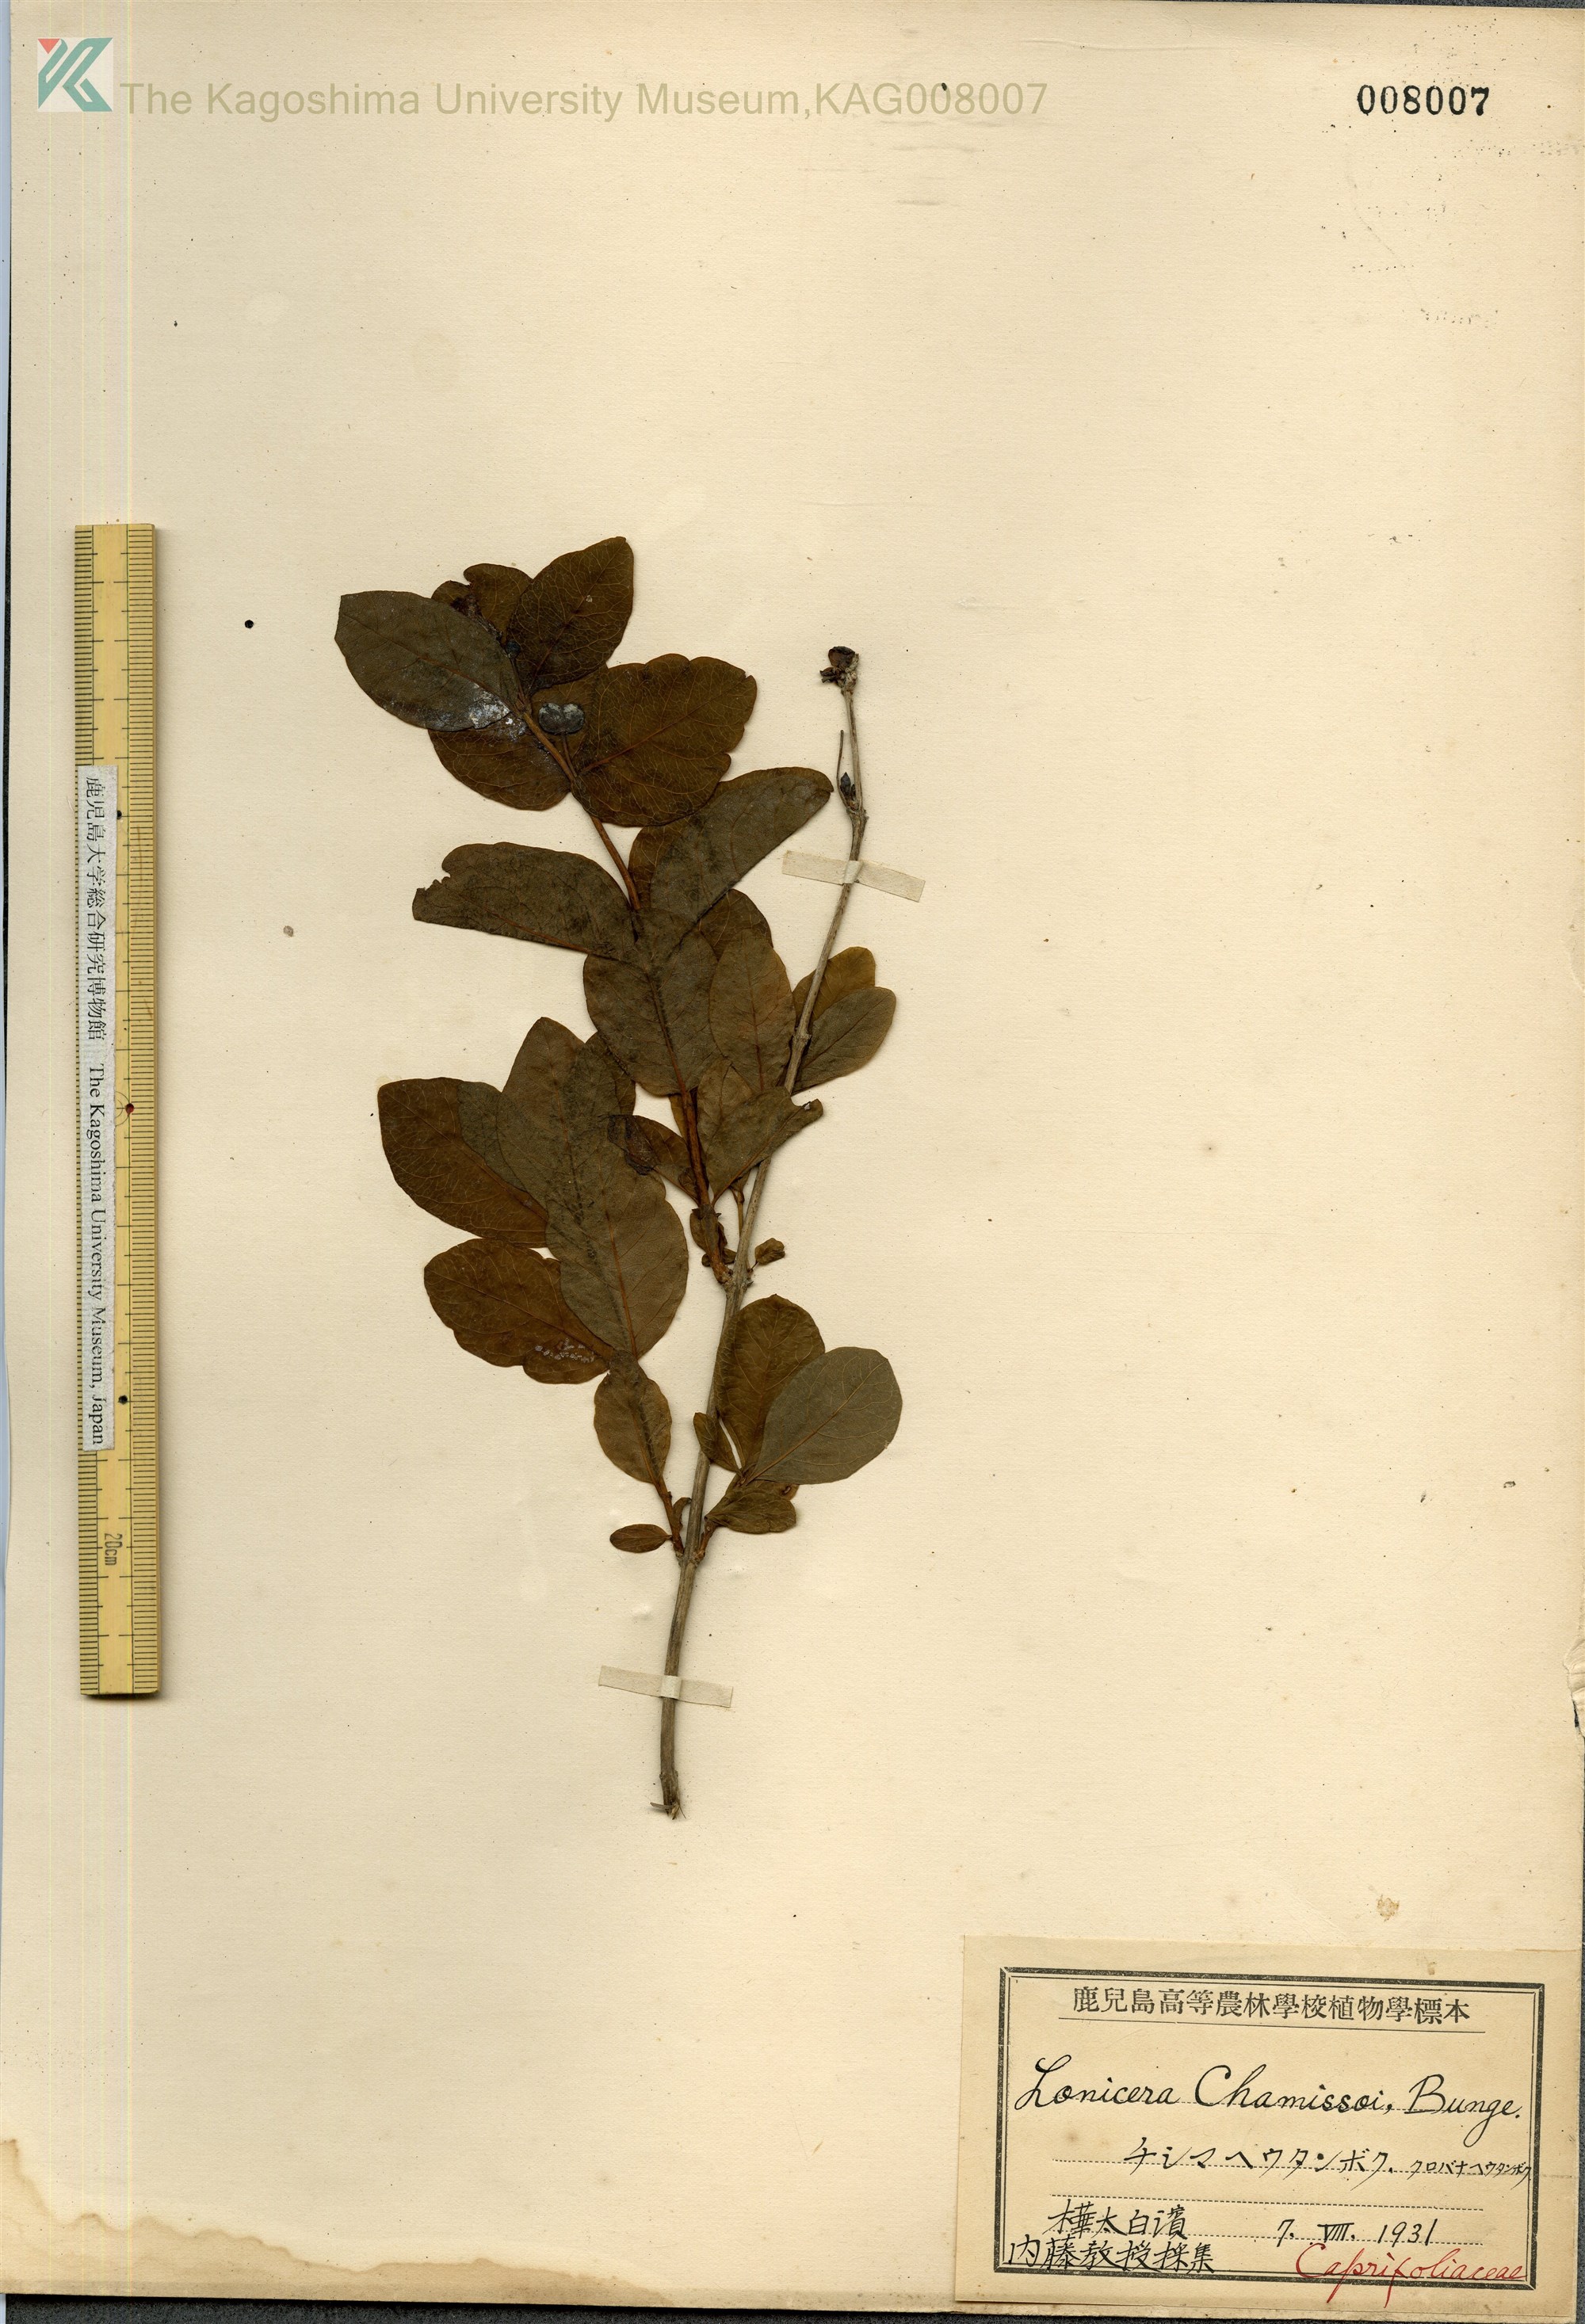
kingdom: Plantae
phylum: Tracheophyta
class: Magnoliopsida
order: Dipsacales
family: Caprifoliaceae
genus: Lonicera
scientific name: Lonicera chamissoi
